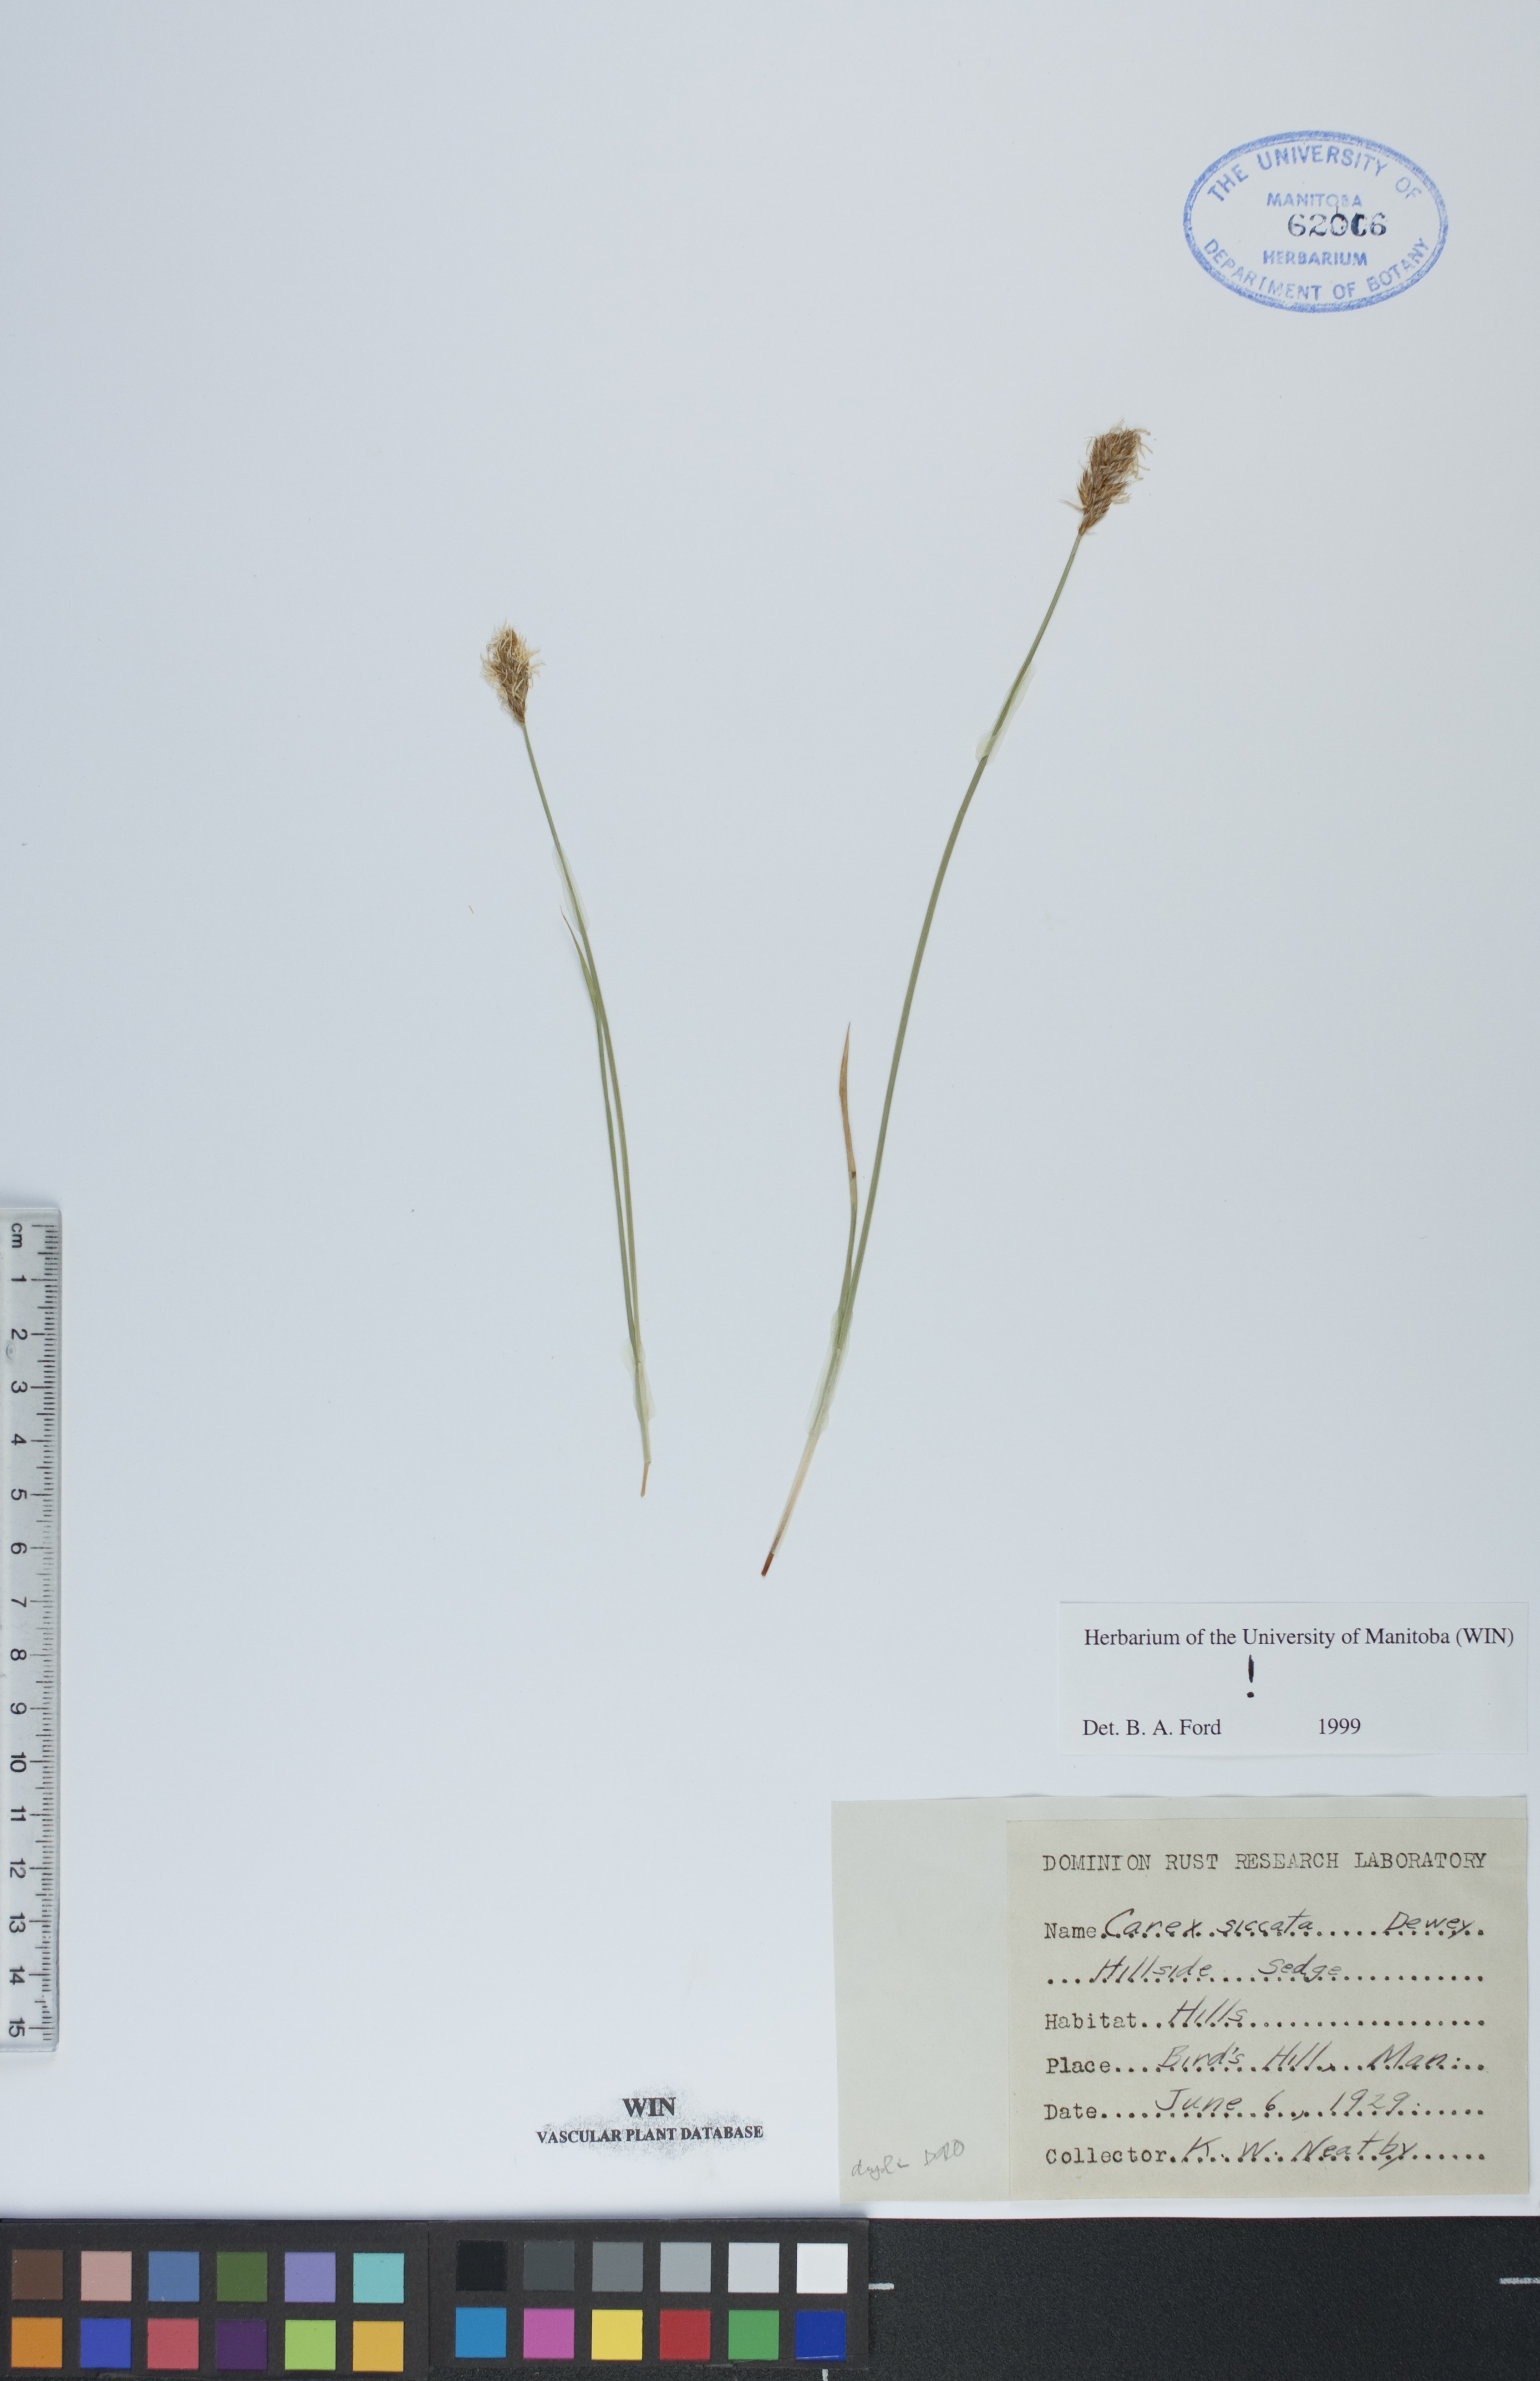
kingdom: Plantae
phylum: Tracheophyta
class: Liliopsida
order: Poales
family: Cyperaceae
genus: Carex
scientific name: Carex siccata
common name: Dry sedge
